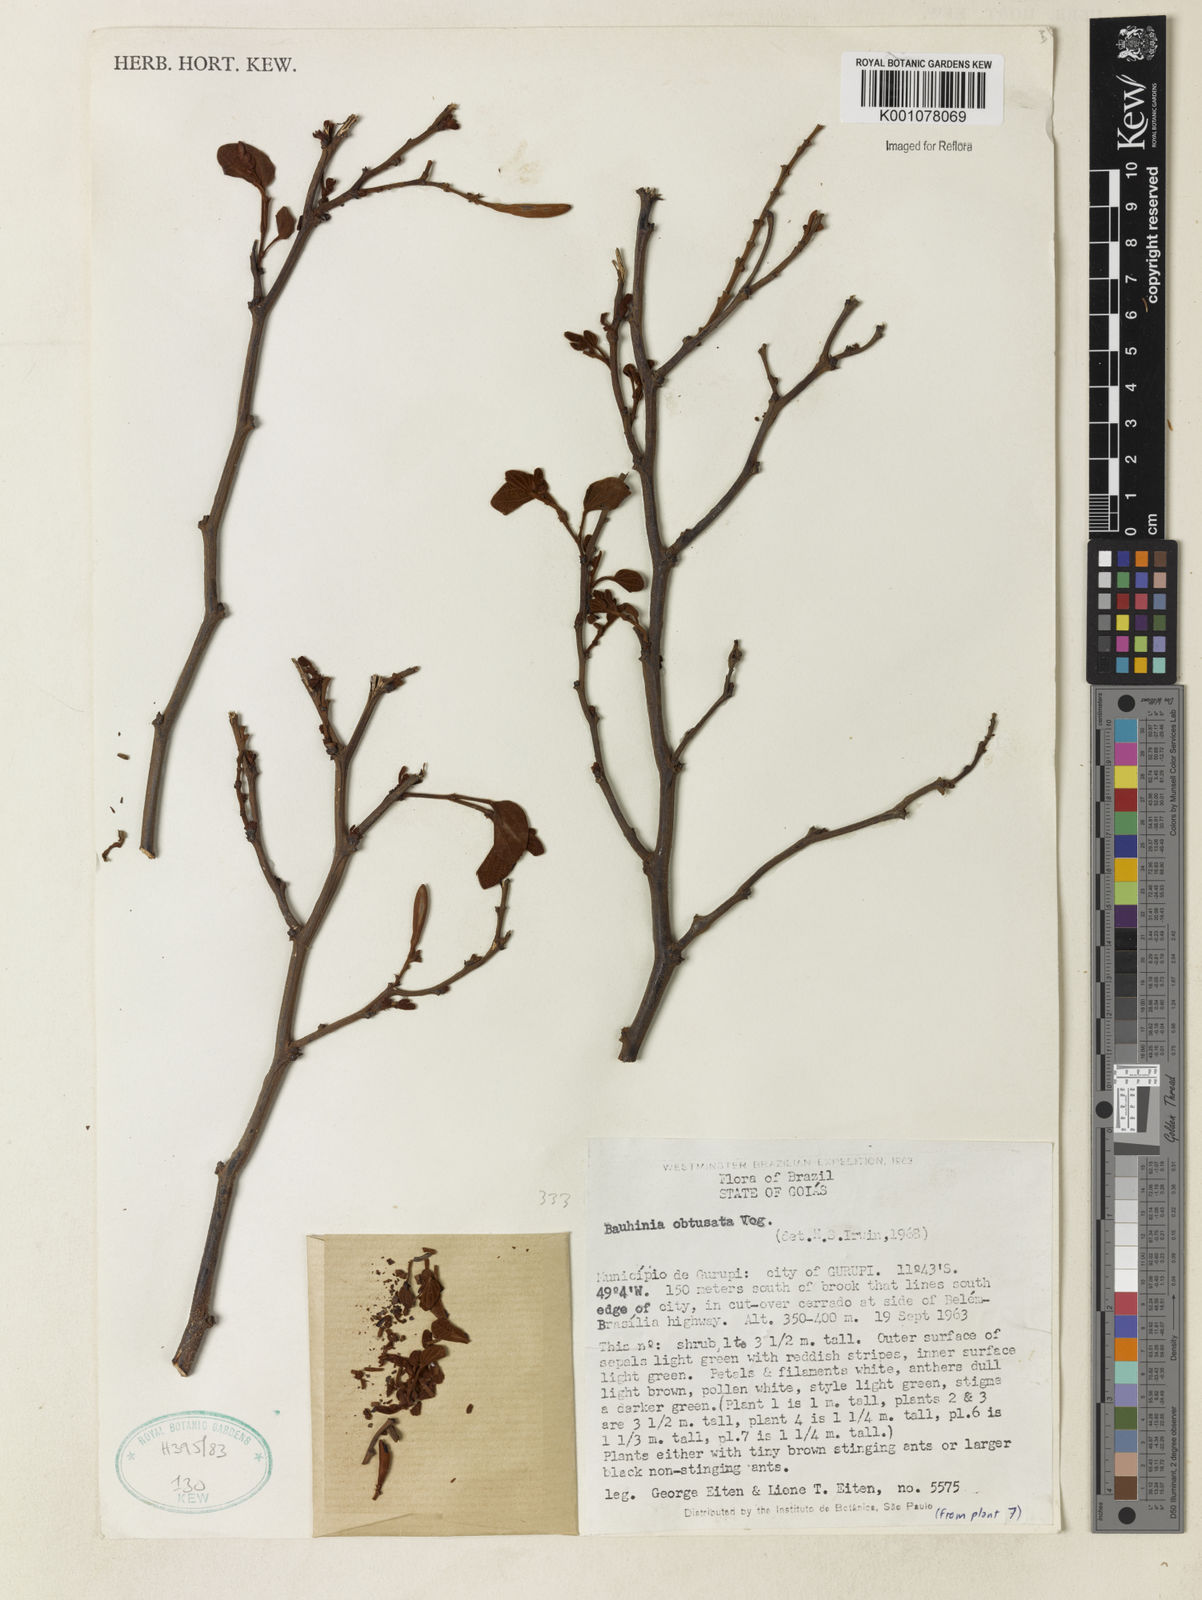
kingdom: Plantae
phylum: Tracheophyta
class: Magnoliopsida
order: Fabales
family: Fabaceae
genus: Bauhinia
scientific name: Bauhinia longifolia
